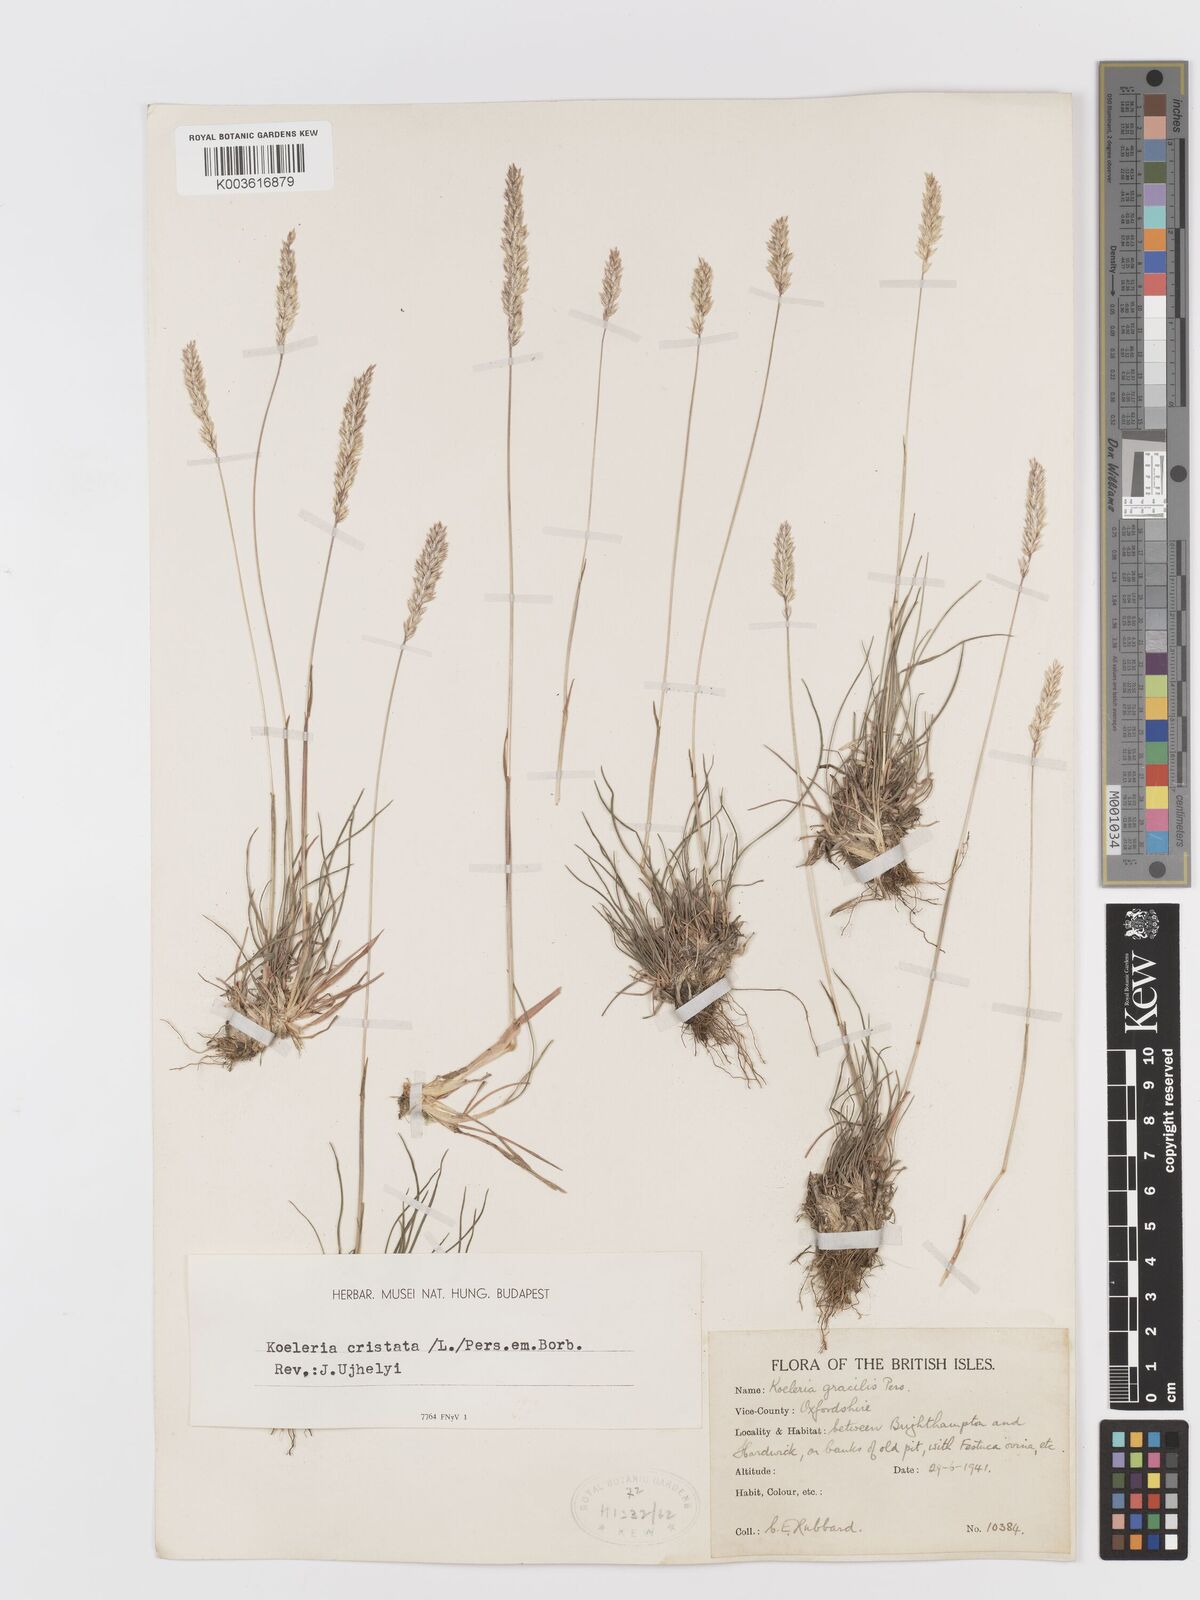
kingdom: Plantae
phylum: Tracheophyta
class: Liliopsida
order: Poales
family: Poaceae
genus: Koeleria
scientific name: Koeleria macrantha
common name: Crested hair-grass
